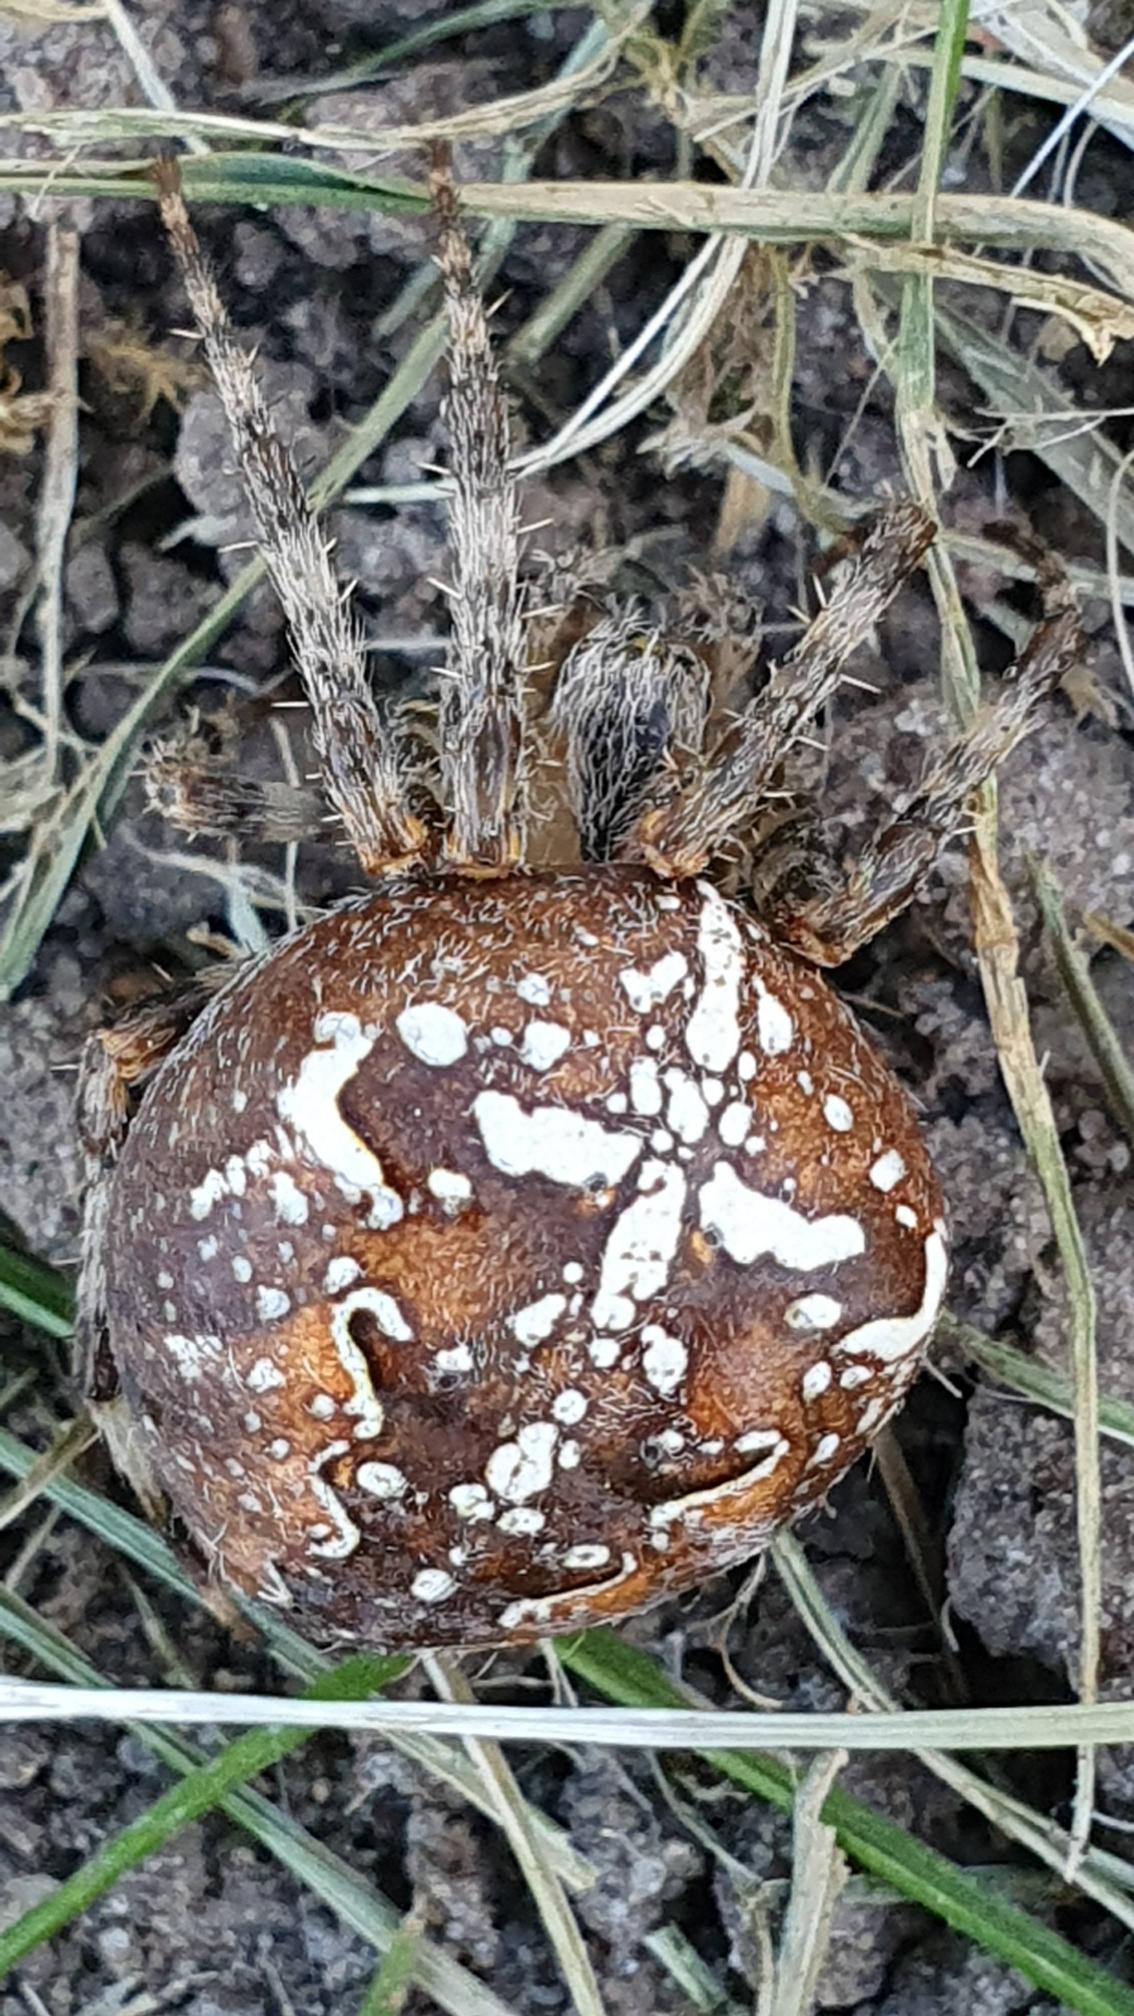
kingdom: Animalia
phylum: Arthropoda
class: Arachnida
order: Araneae
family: Araneidae
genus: Araneus
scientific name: Araneus diadematus
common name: Korsedderkop
